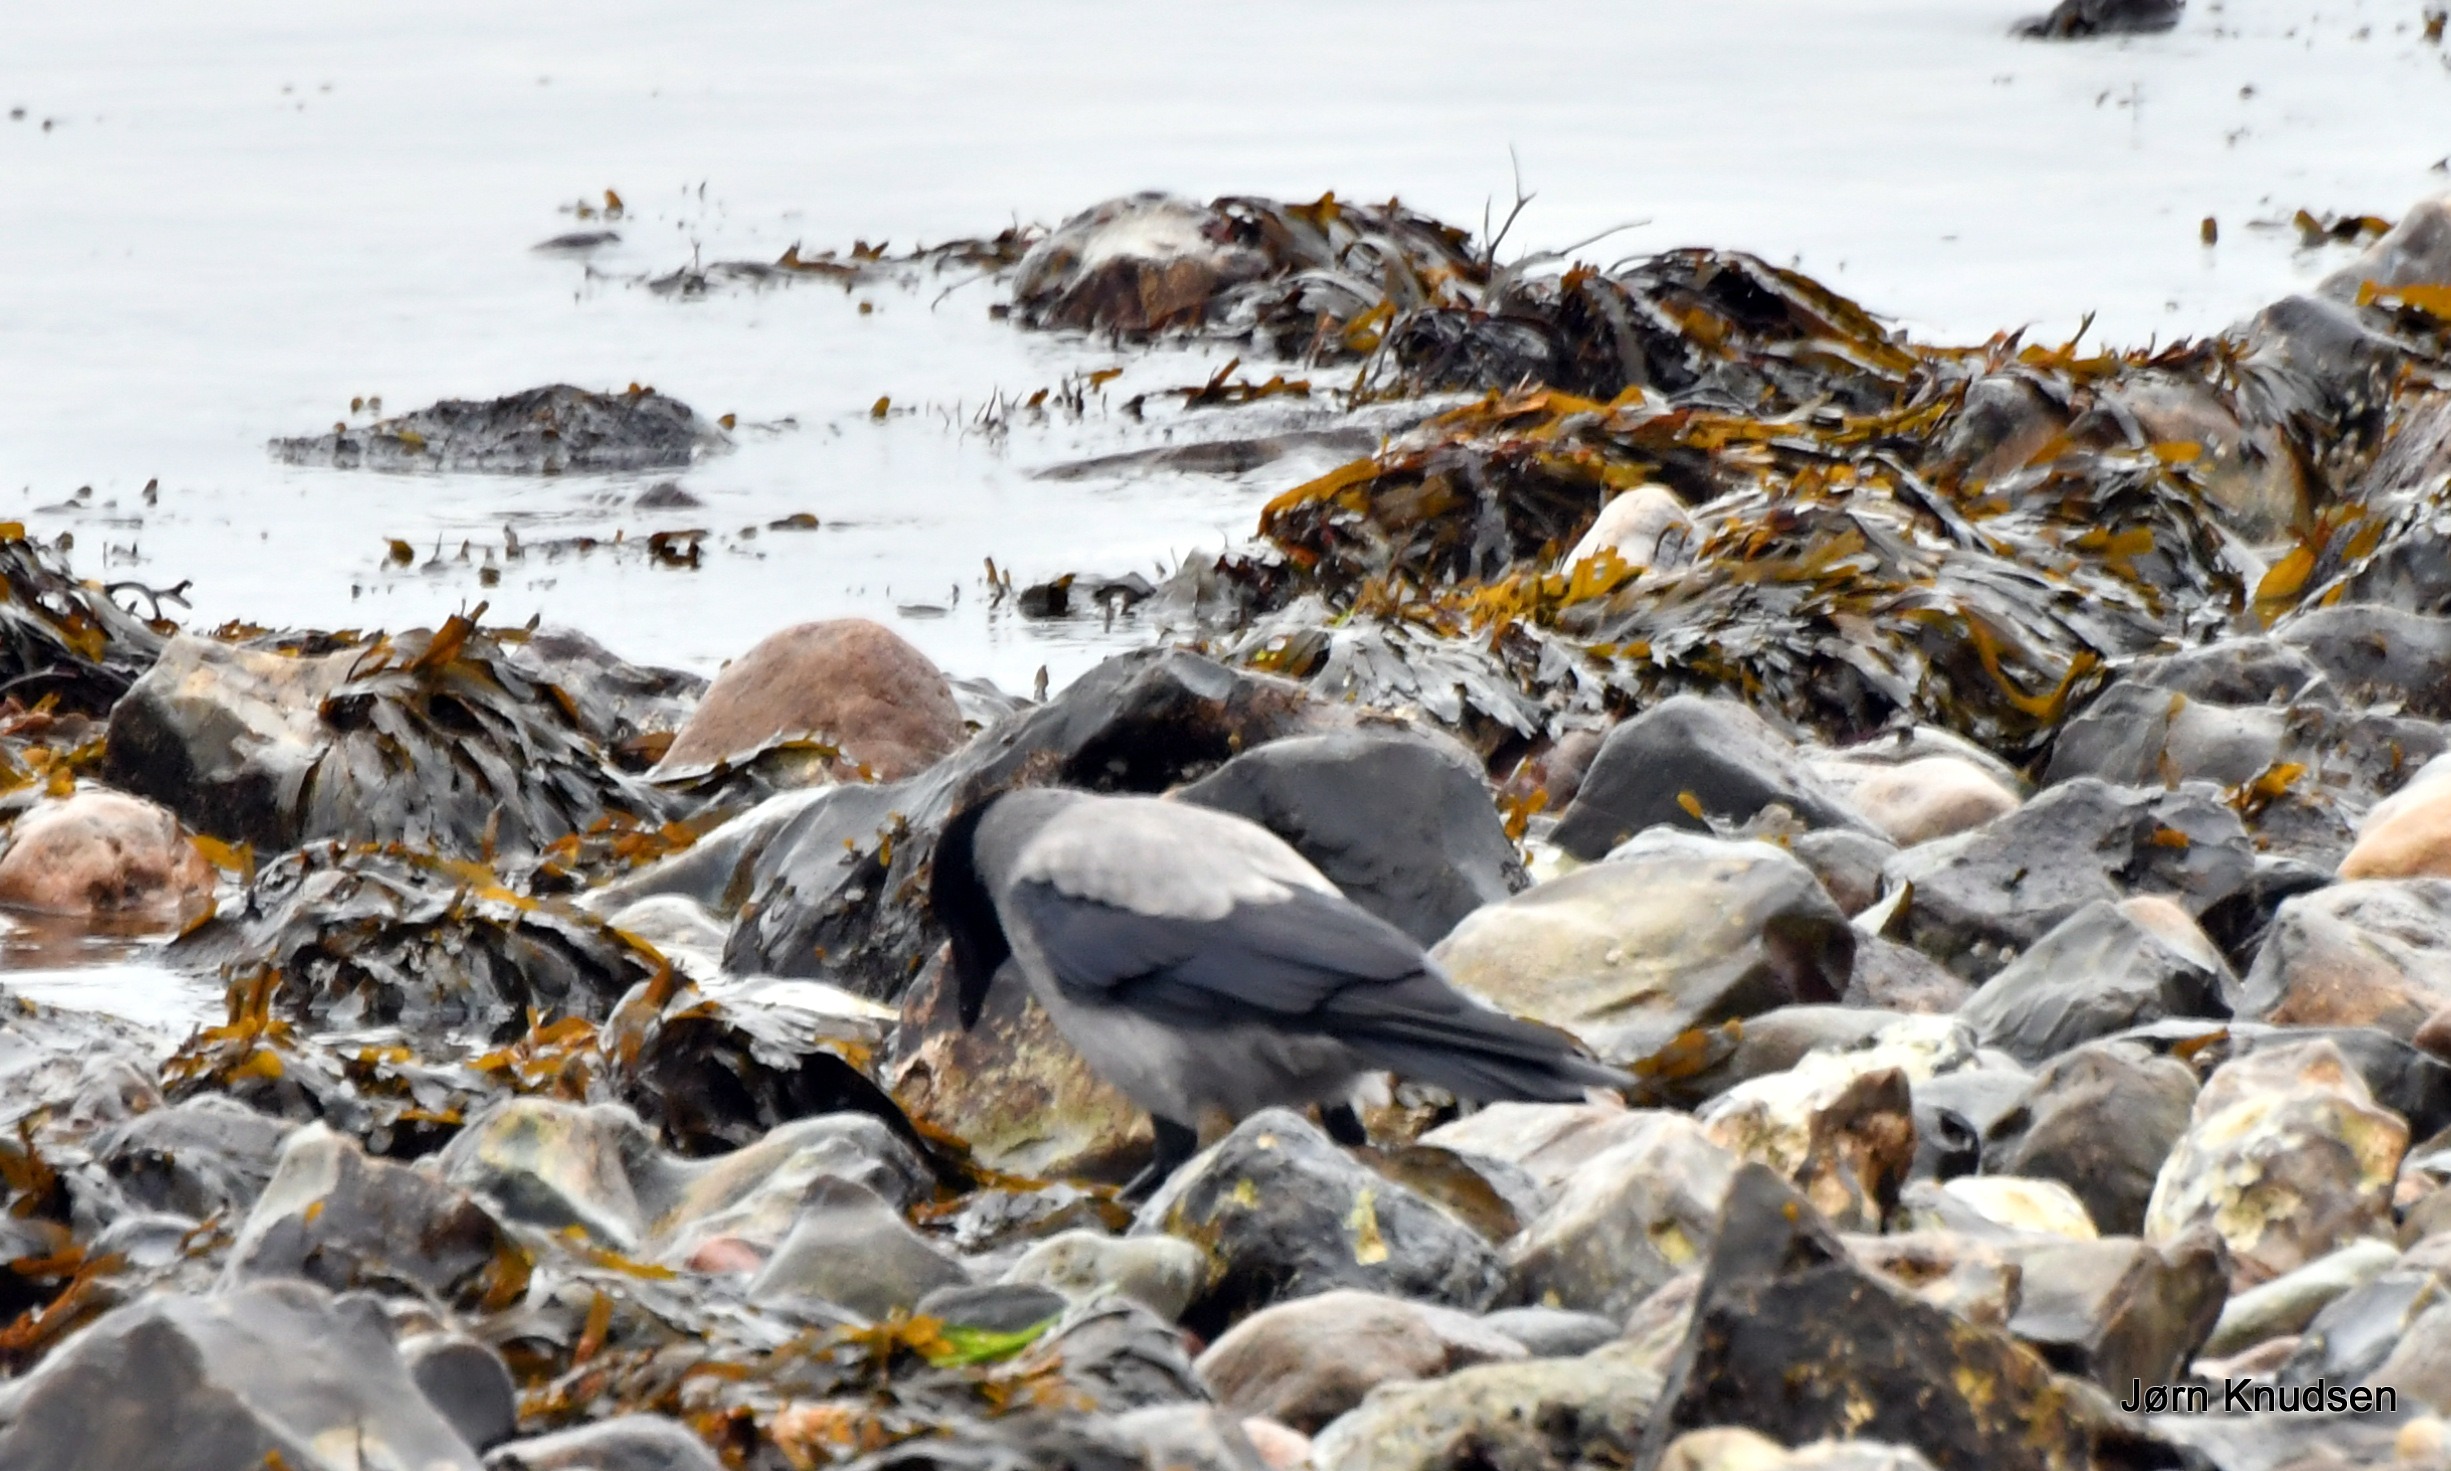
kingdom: Animalia
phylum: Chordata
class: Aves
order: Passeriformes
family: Corvidae
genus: Corvus
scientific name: Corvus cornix
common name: Gråkrage
